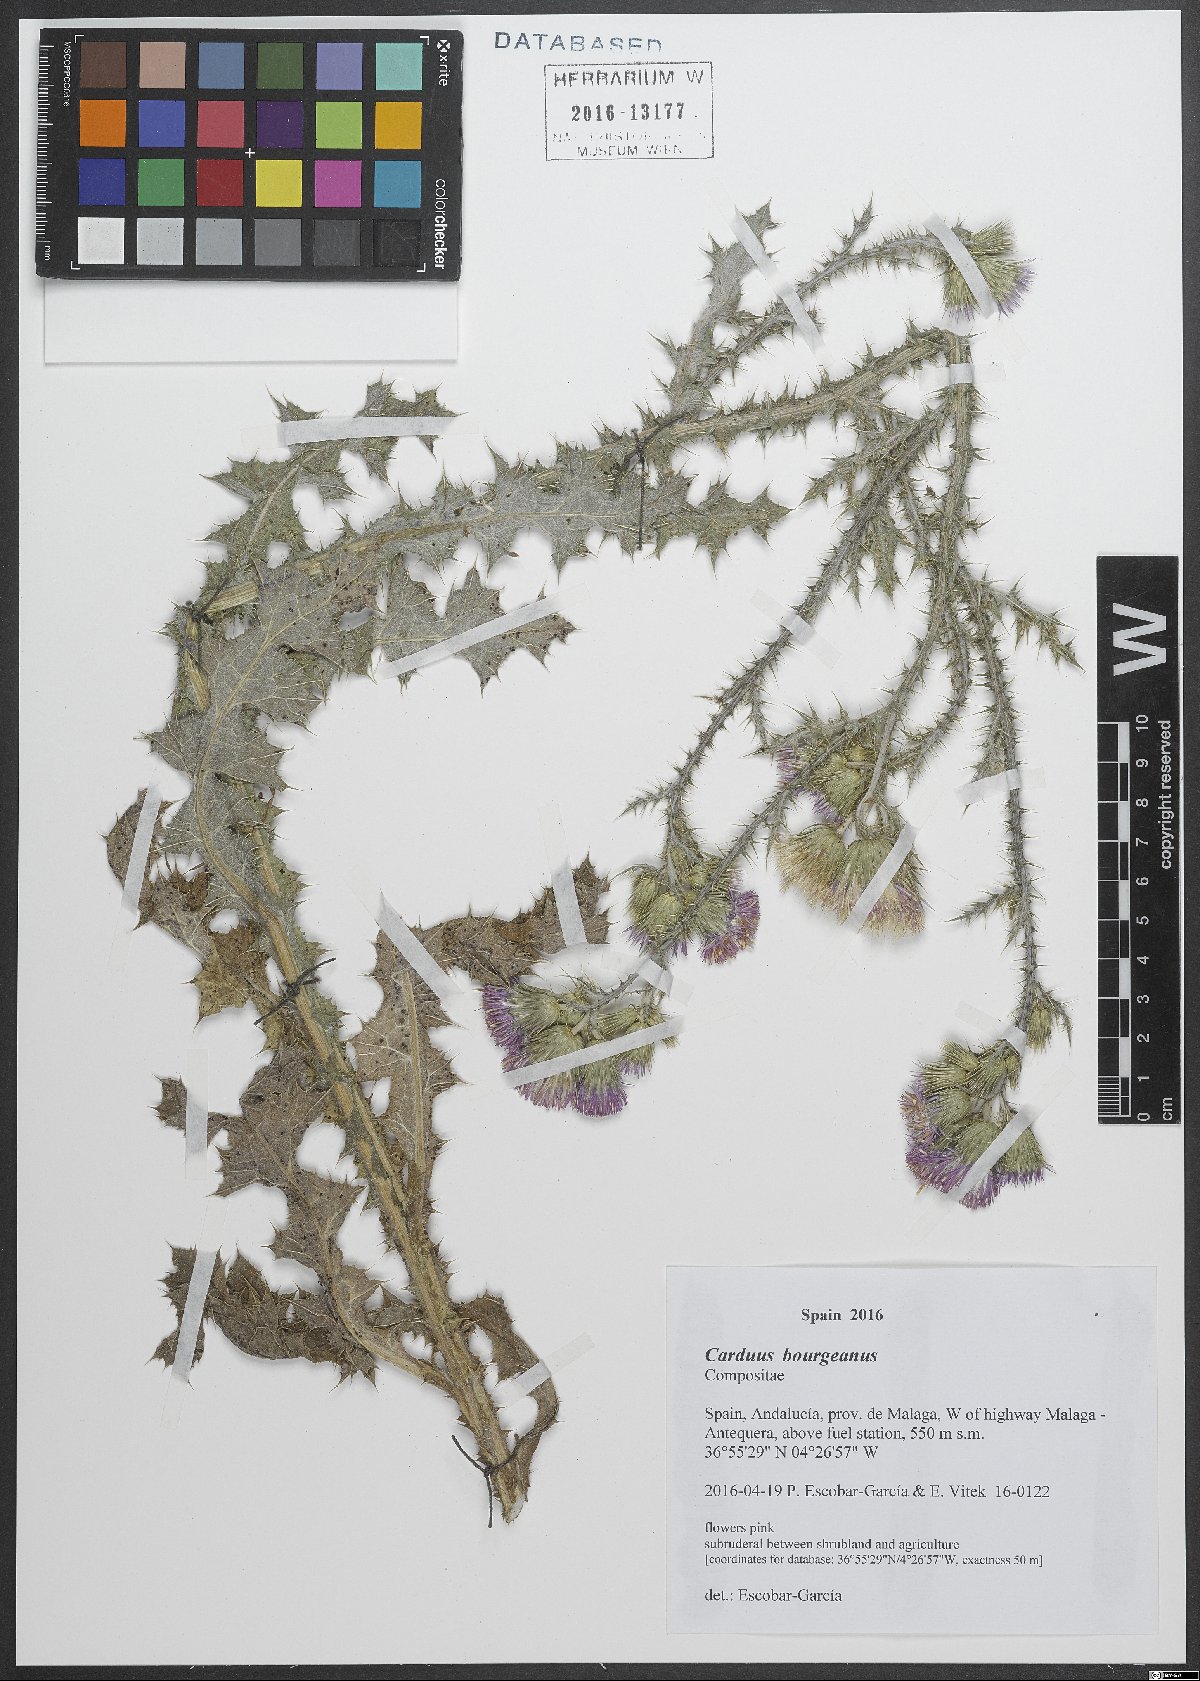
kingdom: Plantae
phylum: Tracheophyta
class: Magnoliopsida
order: Asterales
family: Asteraceae
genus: Carduus
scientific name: Carduus bourgaeanus
